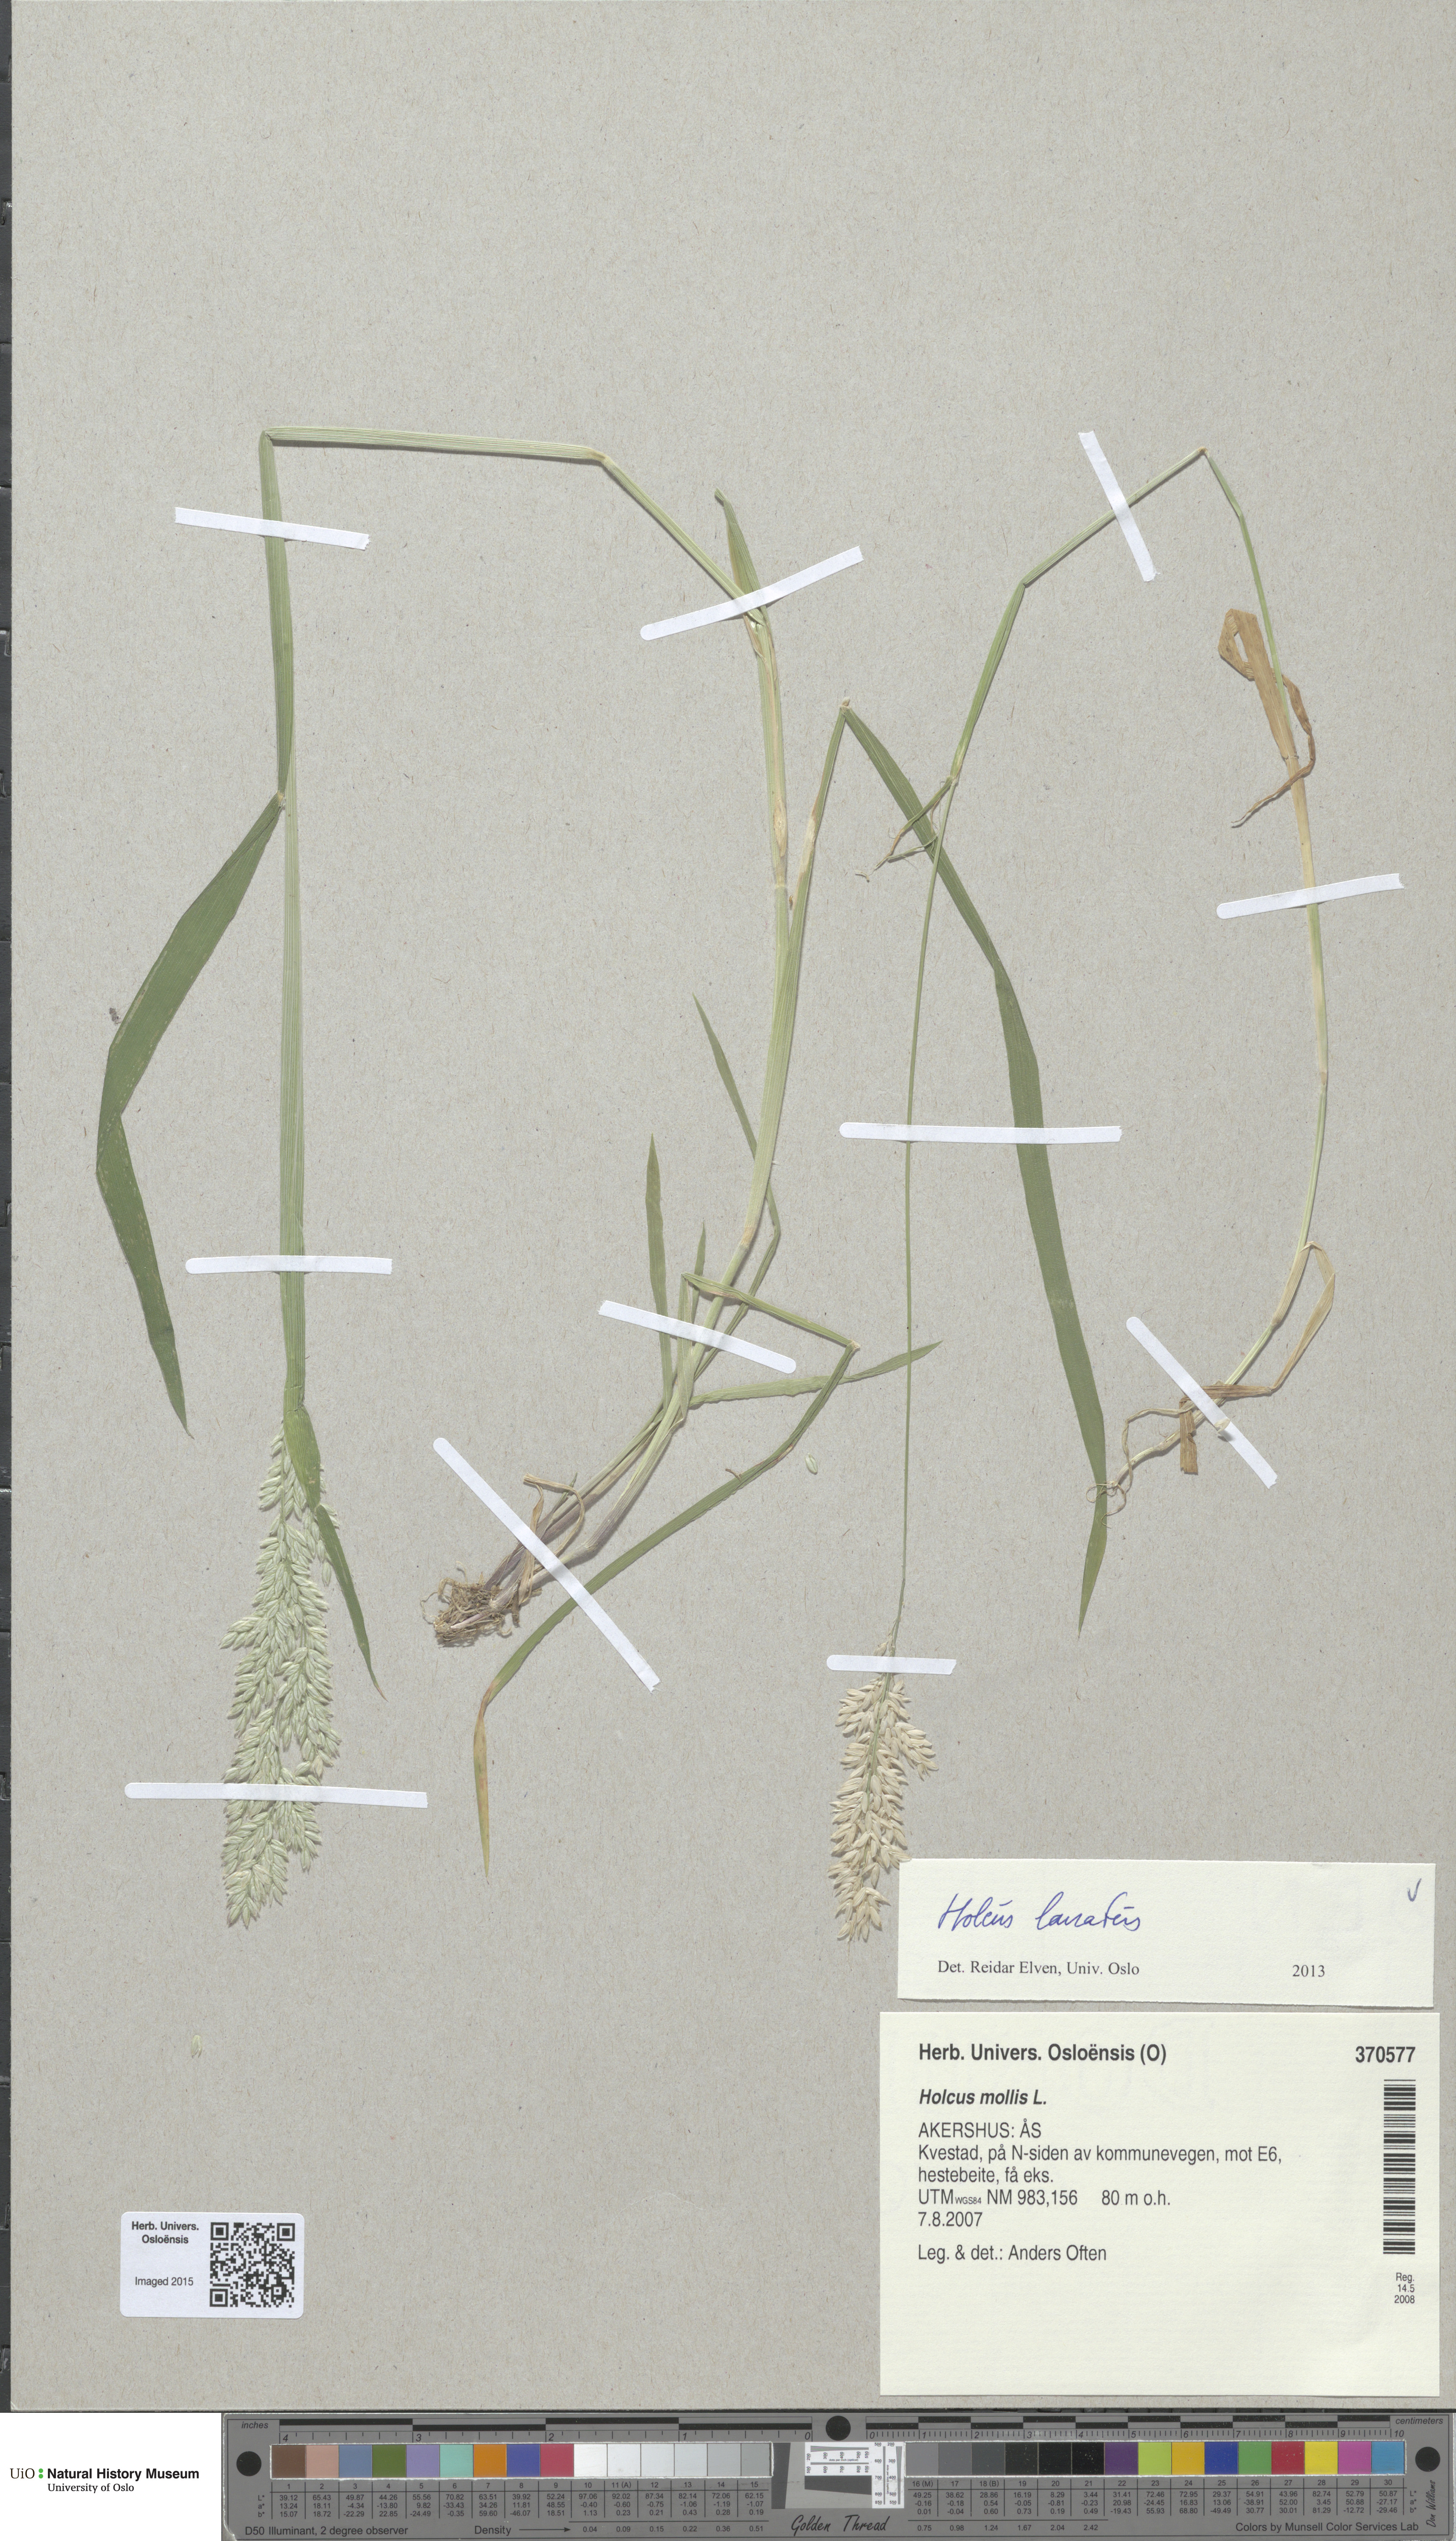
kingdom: Plantae
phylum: Tracheophyta
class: Liliopsida
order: Poales
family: Poaceae
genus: Holcus
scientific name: Holcus lanatus
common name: Yorkshire-fog
